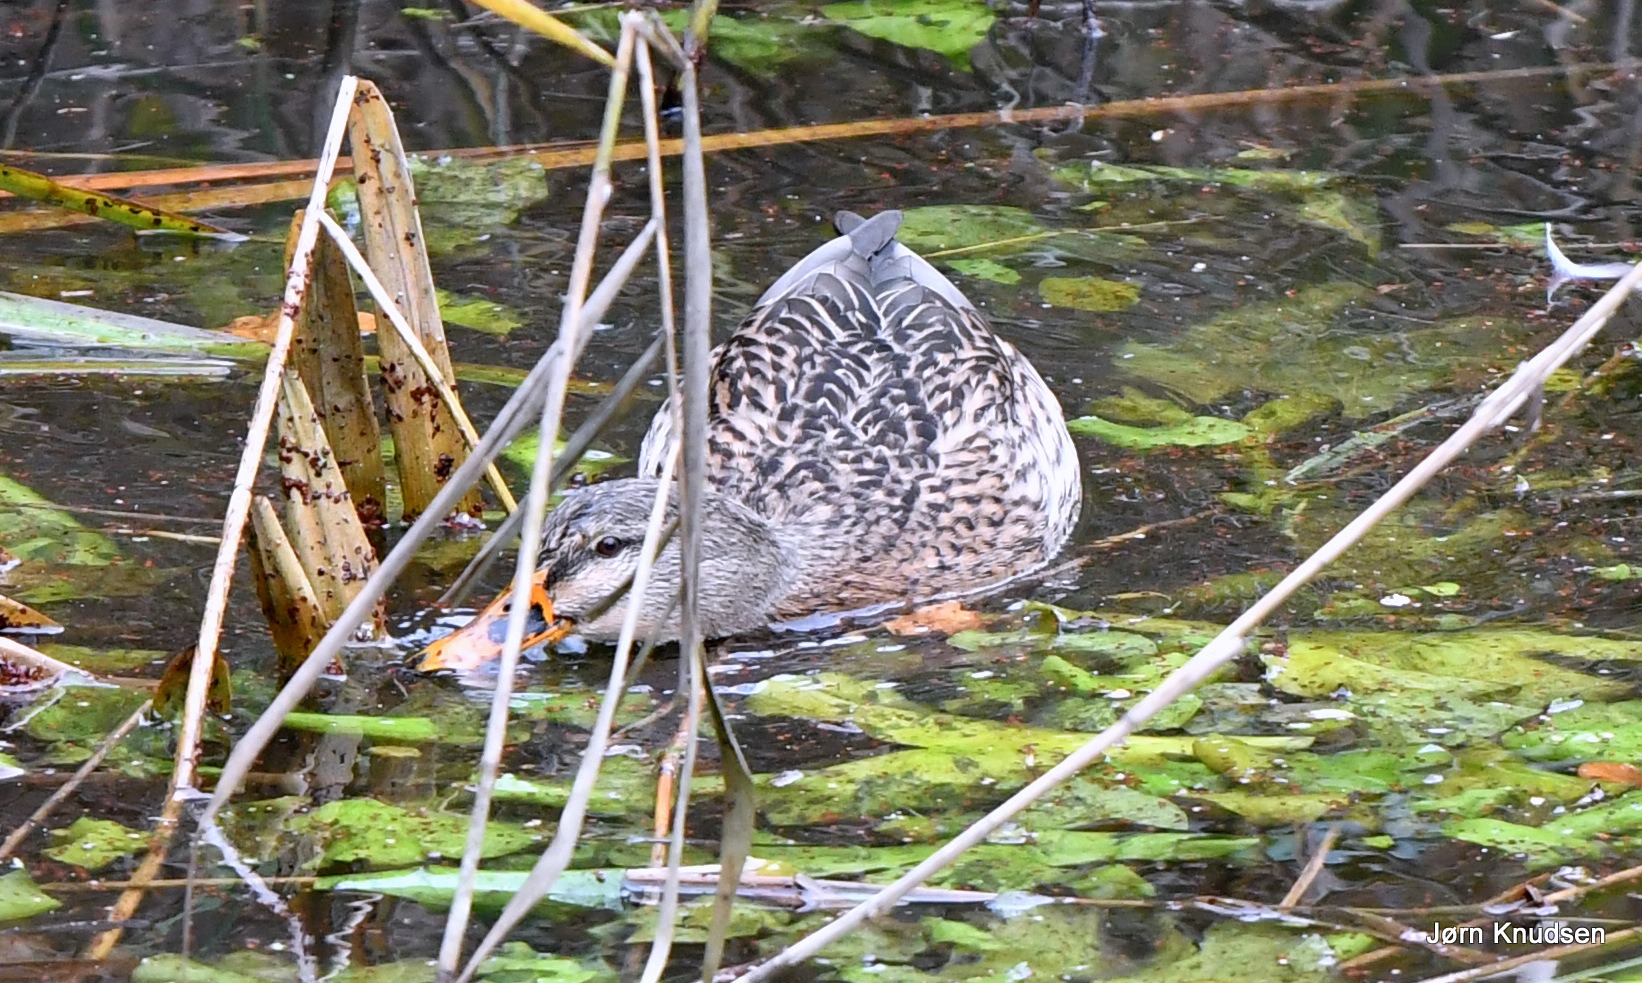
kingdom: Animalia
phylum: Chordata
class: Aves
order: Anseriformes
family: Anatidae
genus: Anas
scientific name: Anas platyrhynchos
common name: Gråand
